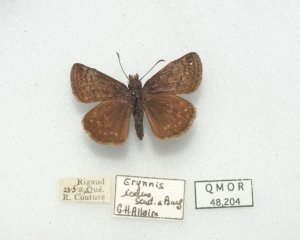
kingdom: Animalia
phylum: Arthropoda
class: Insecta
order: Lepidoptera
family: Hesperiidae
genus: Erynnis
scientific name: Erynnis icelus
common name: Dreamy Duskywing
